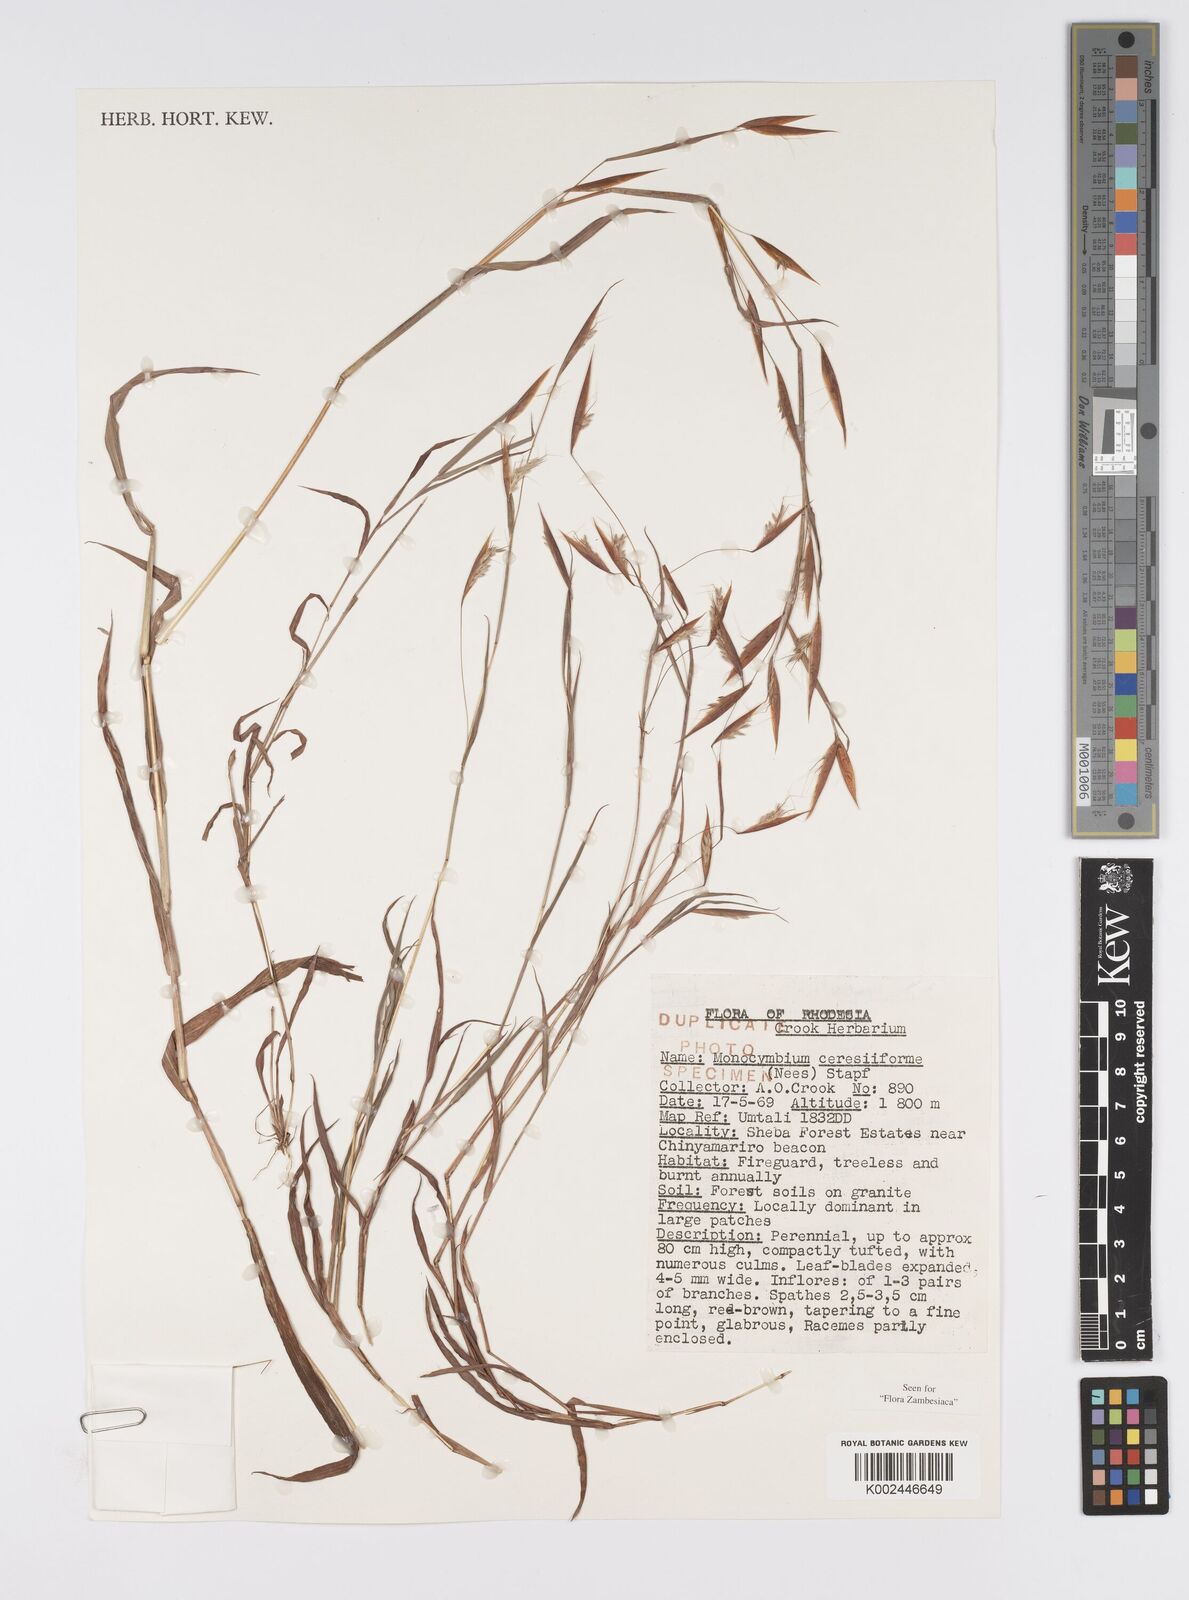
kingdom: Plantae
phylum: Tracheophyta
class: Liliopsida
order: Poales
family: Poaceae
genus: Monocymbium
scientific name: Monocymbium ceresiiforme
